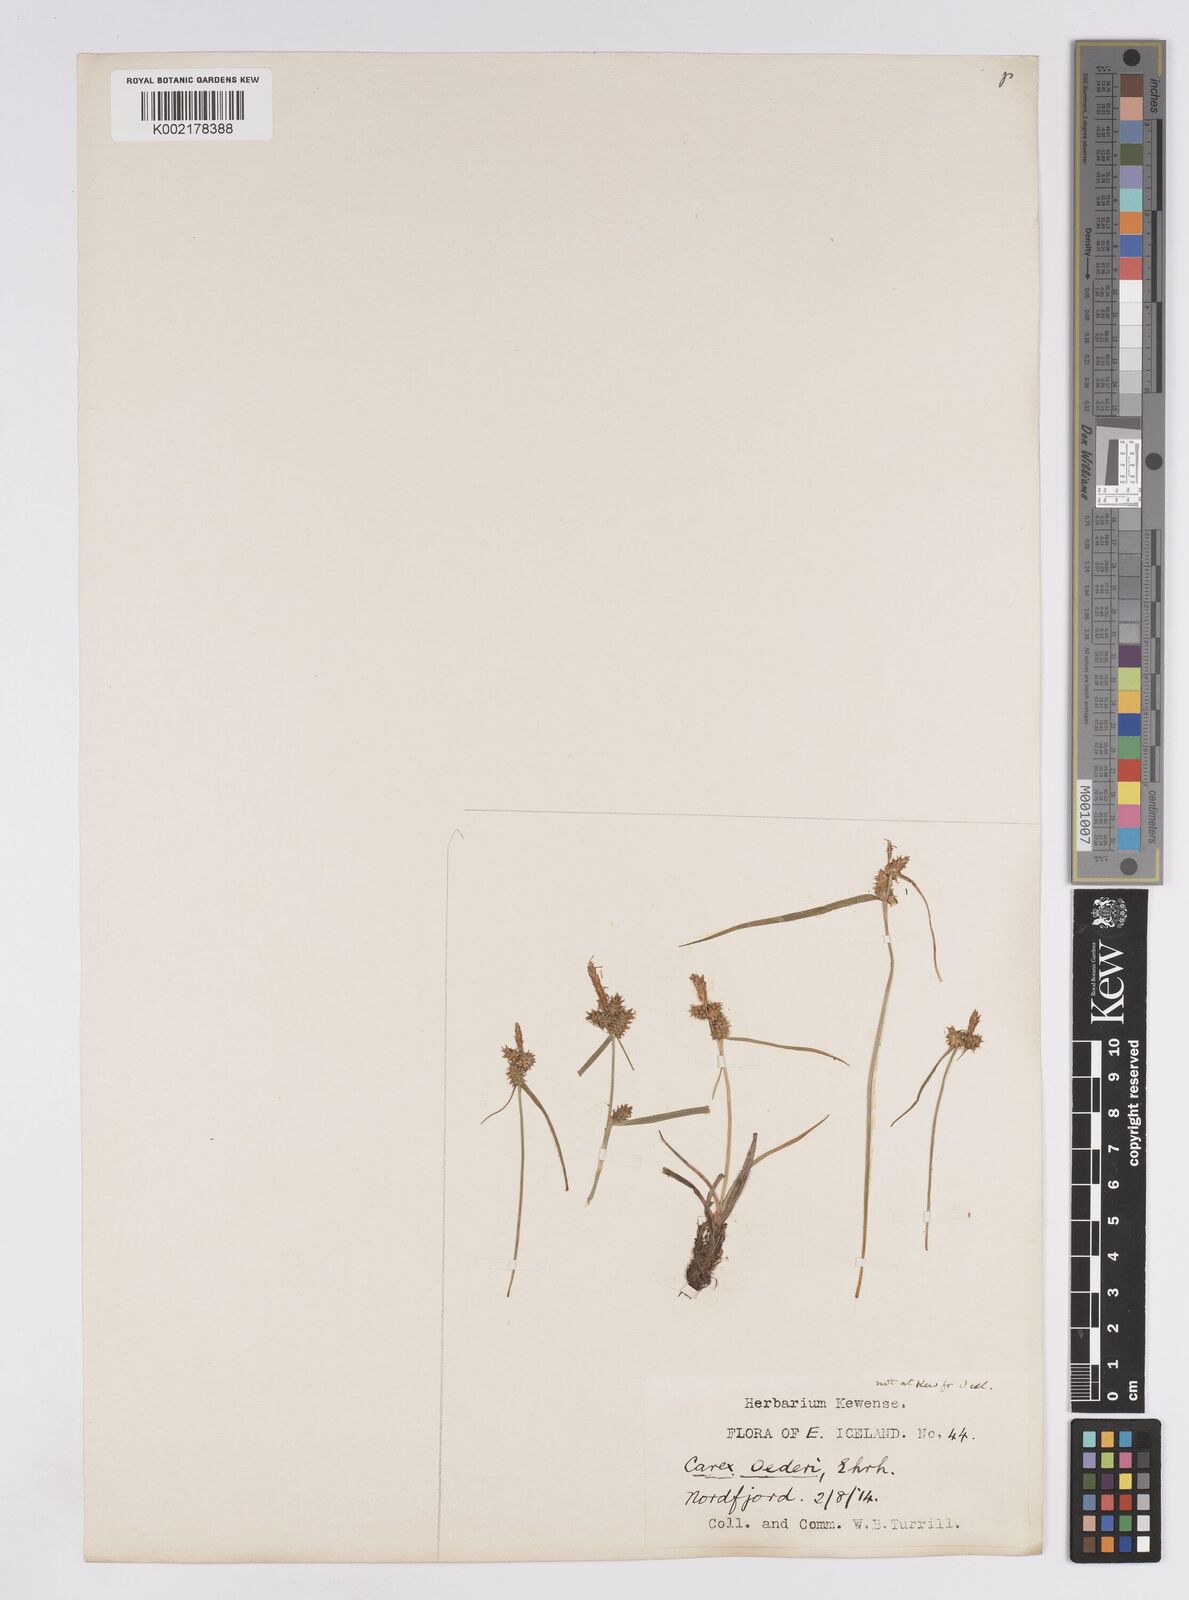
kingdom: Plantae
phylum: Tracheophyta
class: Liliopsida
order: Poales
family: Cyperaceae
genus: Carex
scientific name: Carex demissa
